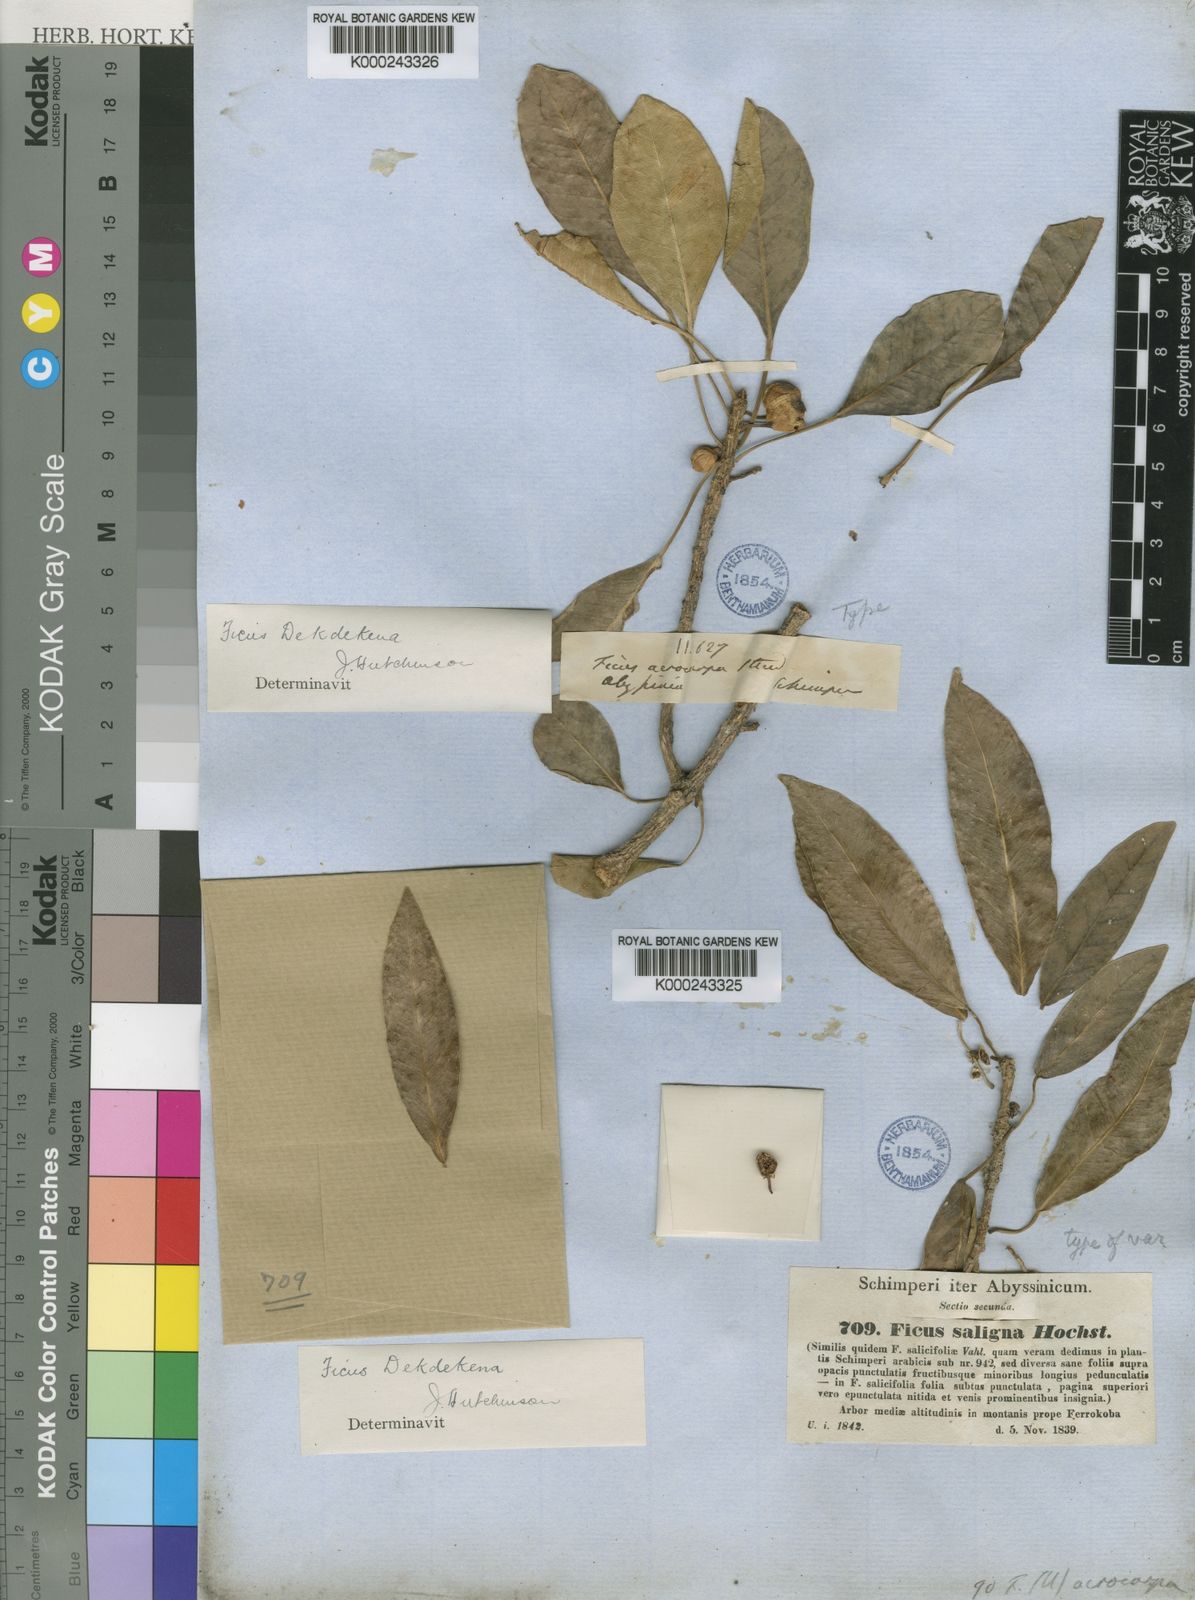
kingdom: Plantae
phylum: Tracheophyta
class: Magnoliopsida
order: Rosales
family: Moraceae
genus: Ficus
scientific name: Ficus thonningii
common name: Fig
